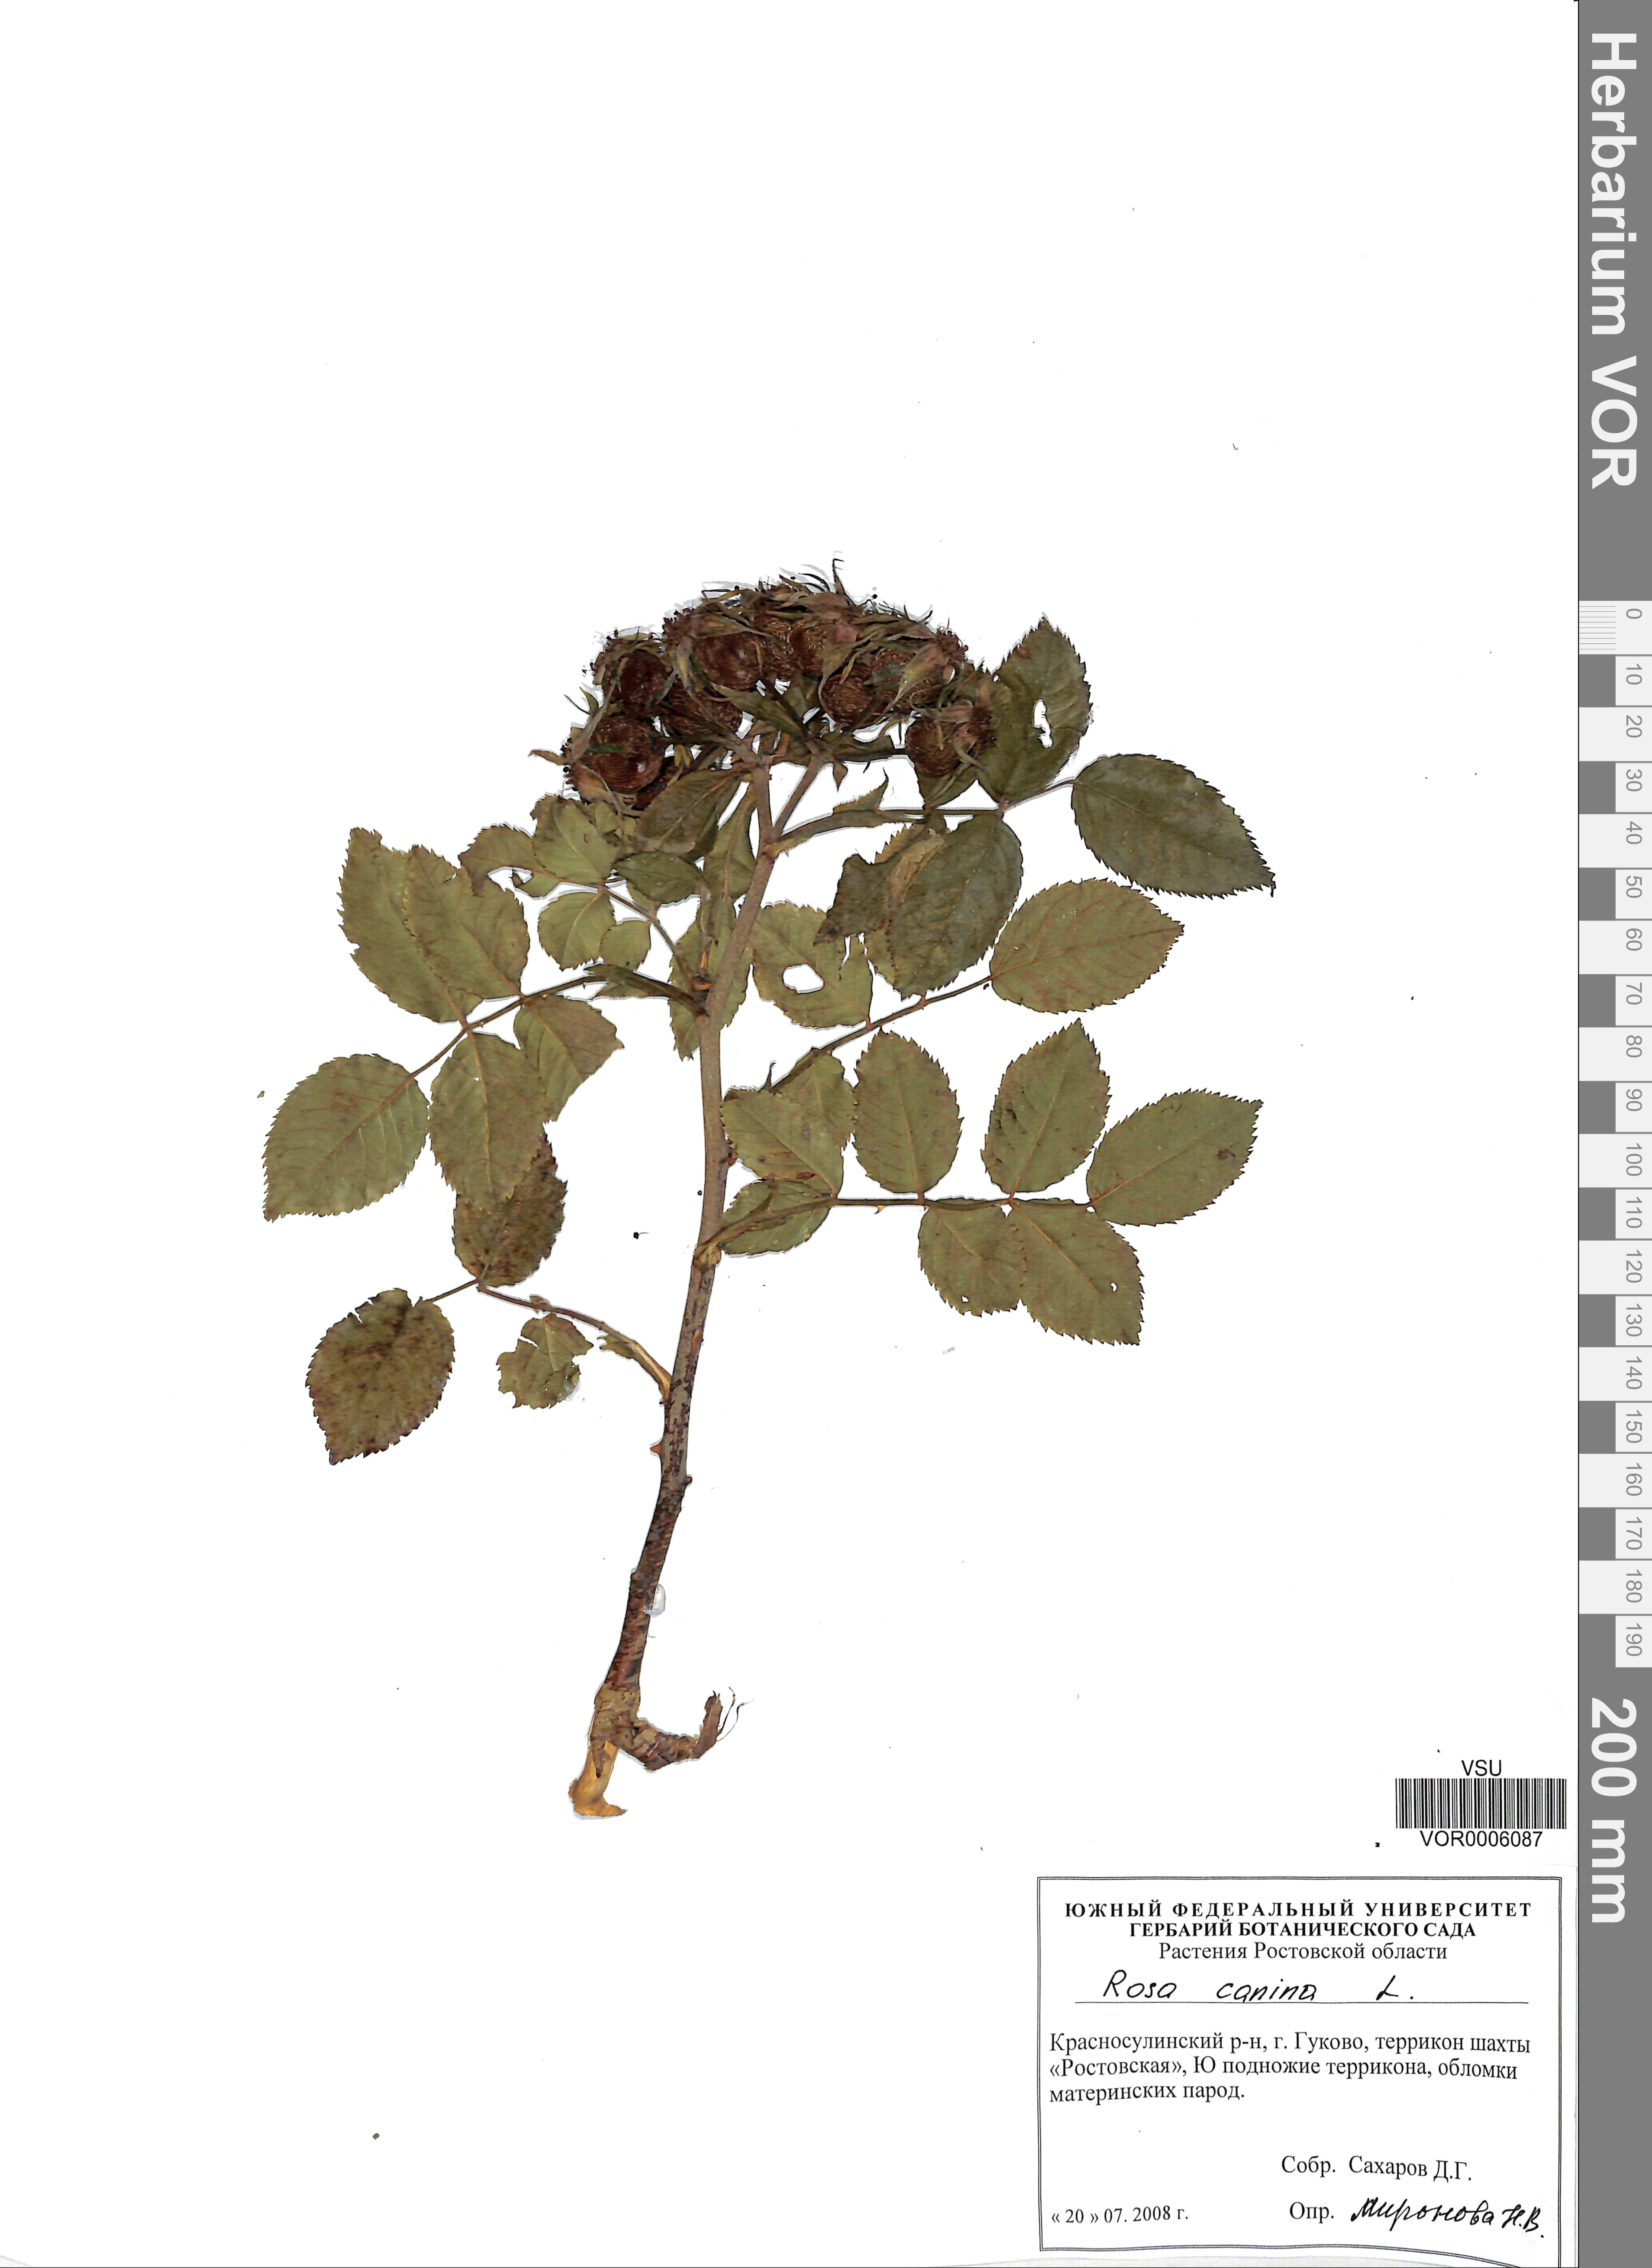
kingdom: Plantae
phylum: Tracheophyta
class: Magnoliopsida
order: Rosales
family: Rosaceae
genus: Rosa
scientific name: Rosa canina
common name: Dog rose
